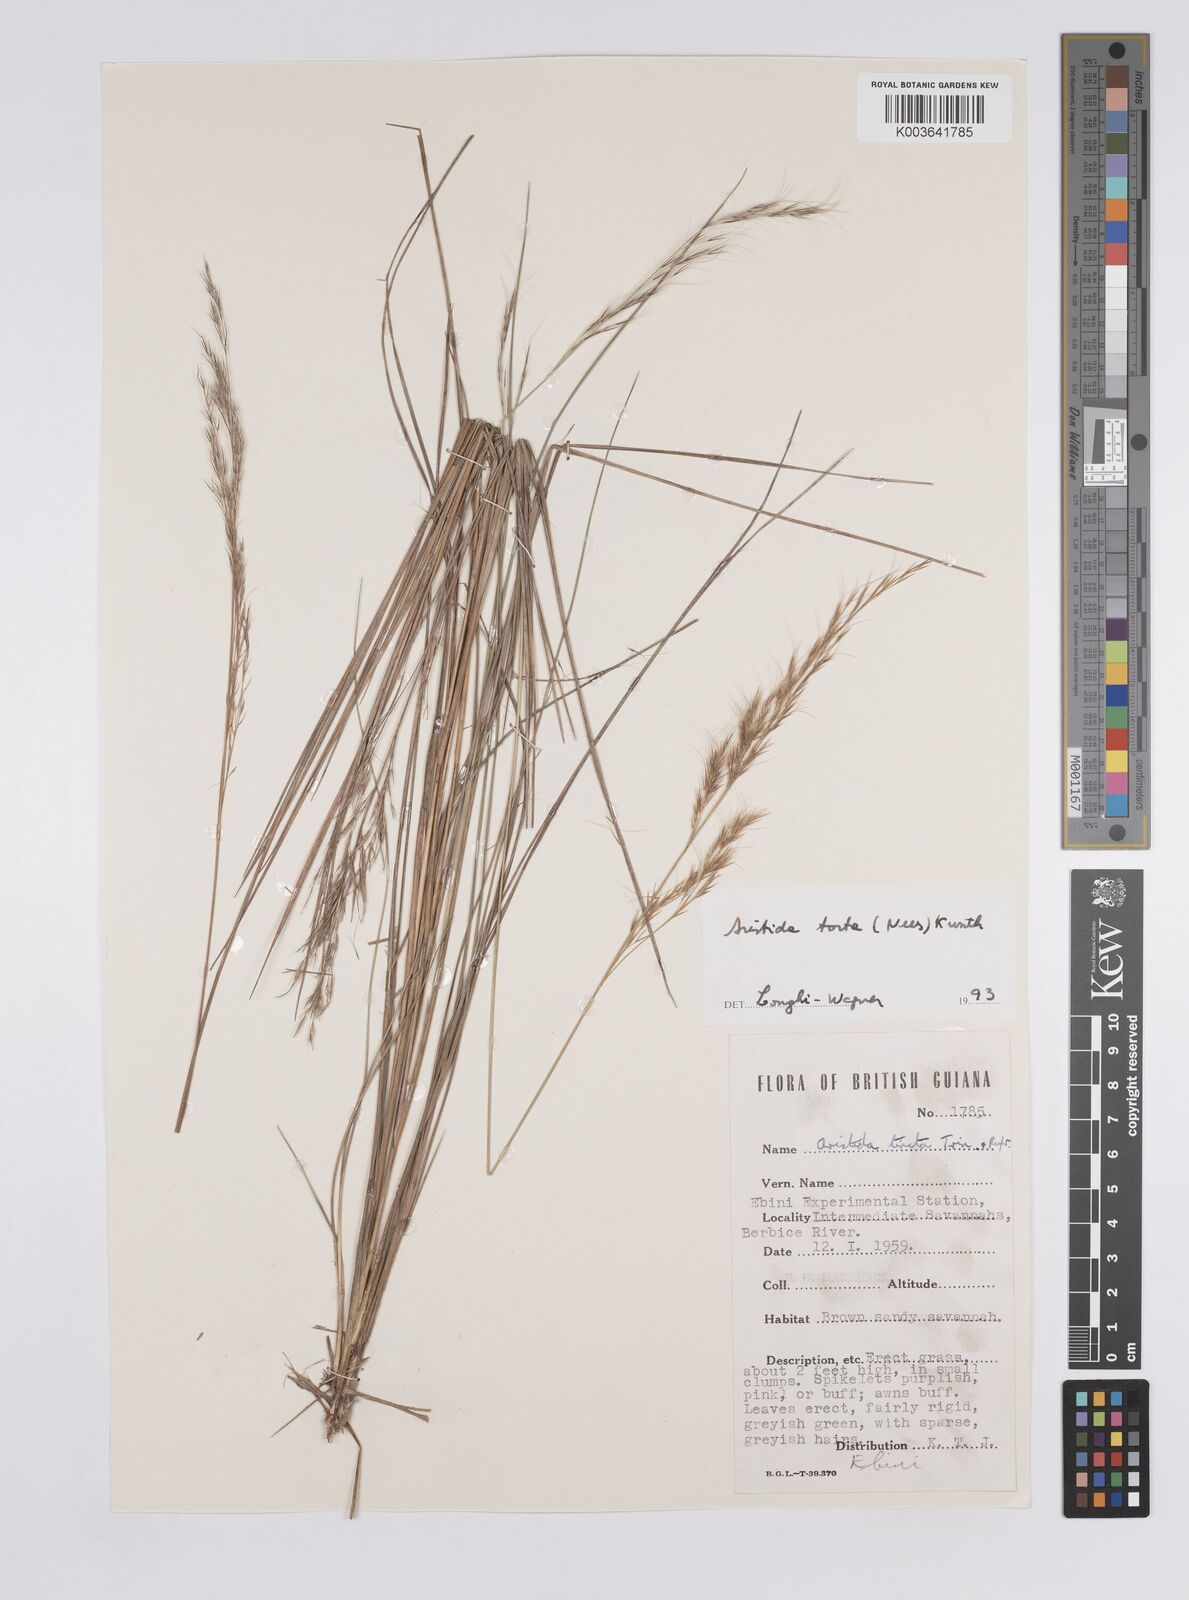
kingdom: Plantae
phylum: Tracheophyta
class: Liliopsida
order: Poales
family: Poaceae
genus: Aristida
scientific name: Aristida torta
